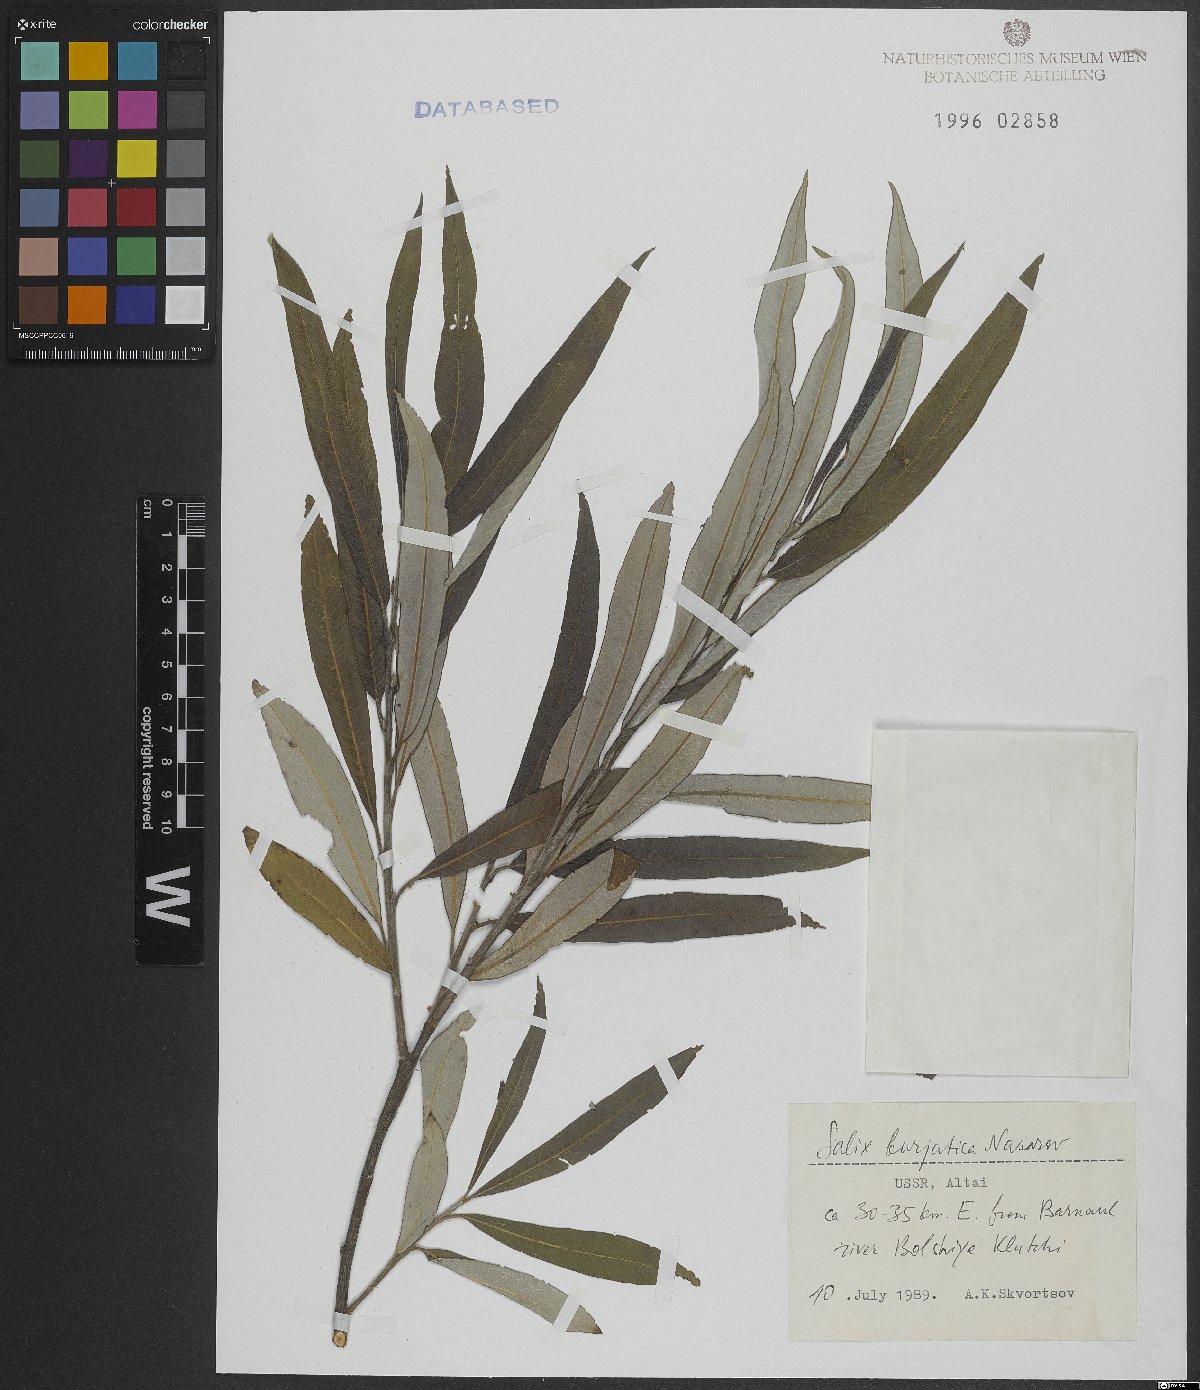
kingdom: Plantae
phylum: Tracheophyta
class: Magnoliopsida
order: Malpighiales
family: Salicaceae
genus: Salix
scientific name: Salix gmelinii
